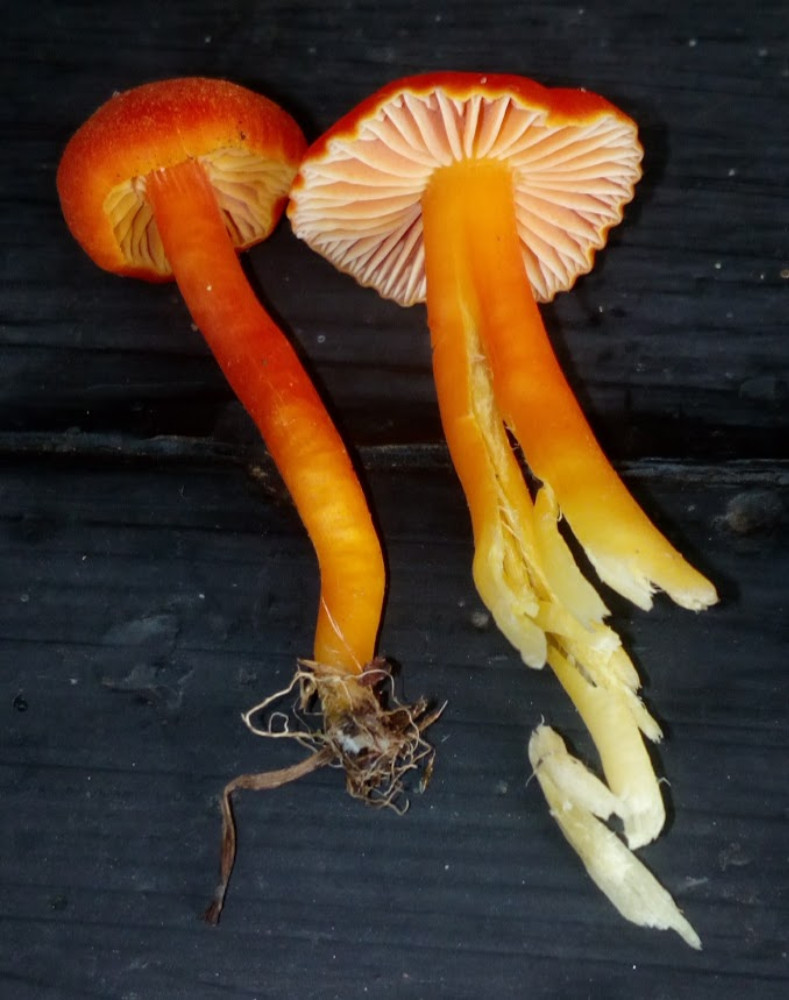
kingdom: Fungi
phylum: Basidiomycota
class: Agaricomycetes
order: Agaricales
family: Hygrophoraceae
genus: Hygrocybe
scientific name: Hygrocybe miniata
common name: mønje-vokshat
